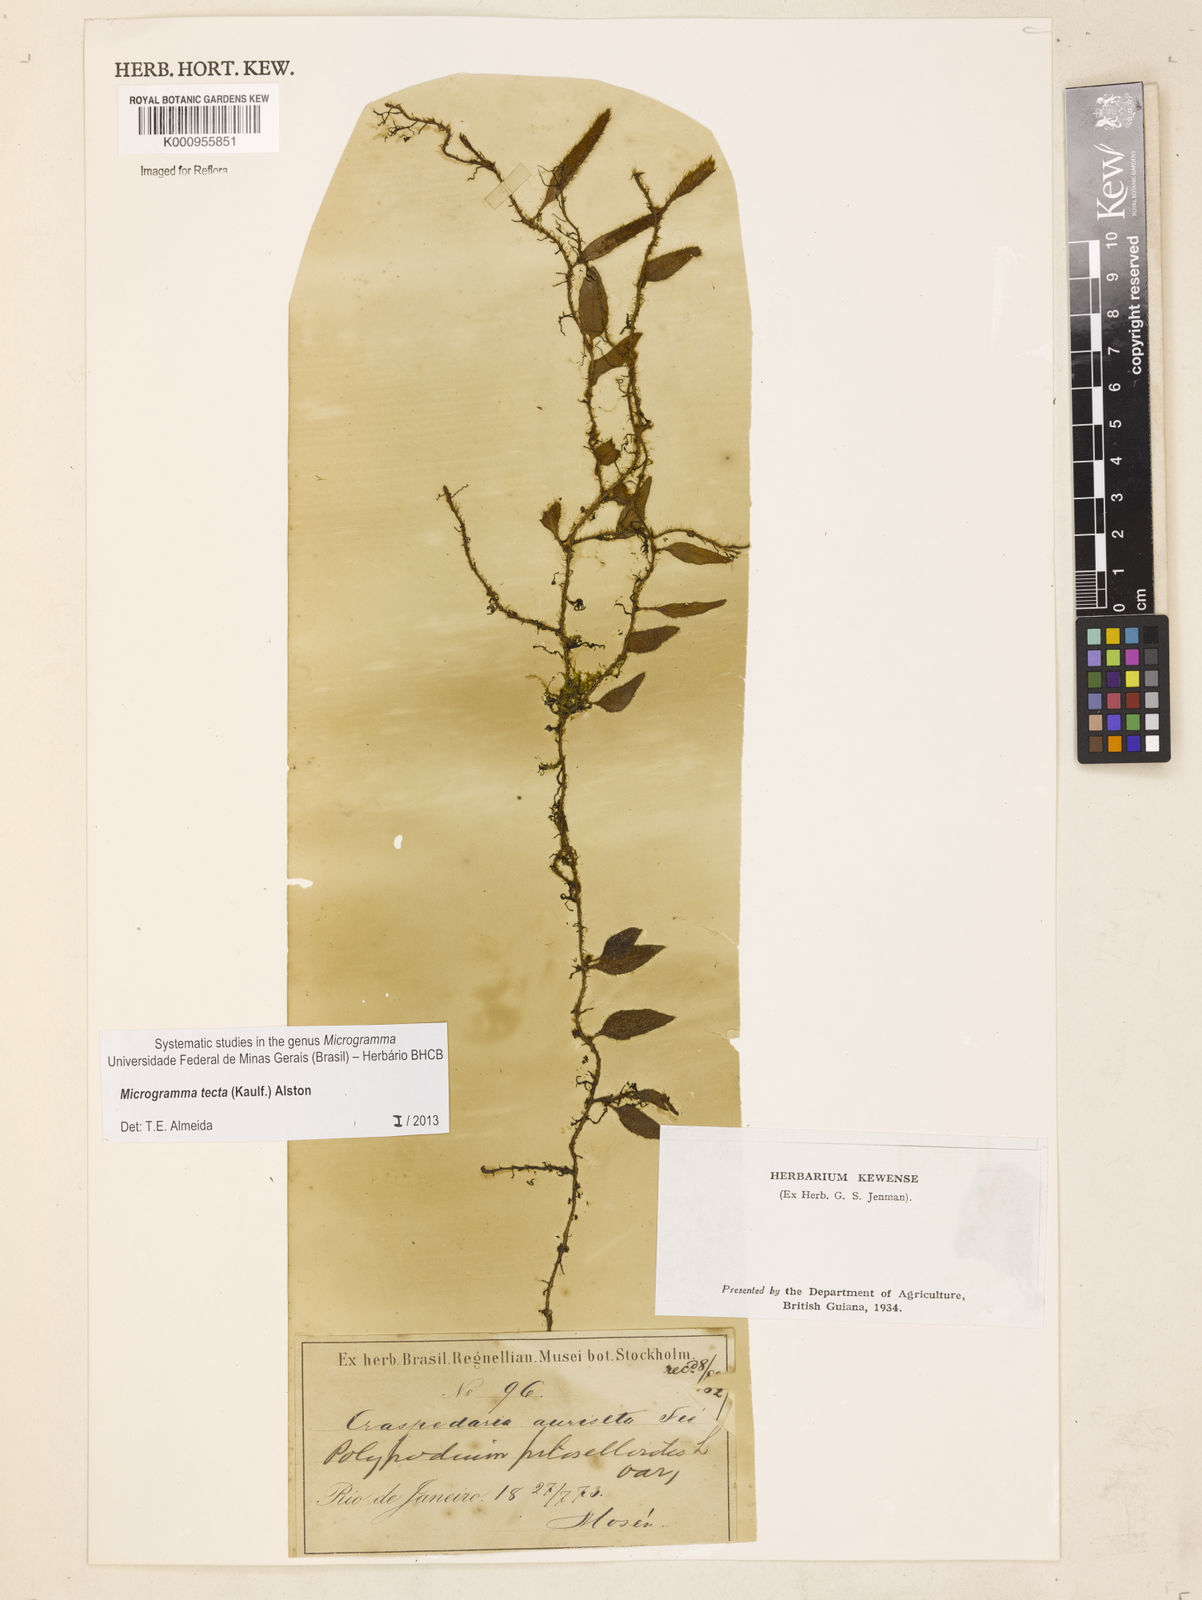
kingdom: Plantae
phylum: Tracheophyta
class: Polypodiopsida
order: Polypodiales
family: Polypodiaceae
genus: Microgramma
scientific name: Microgramma tecta
